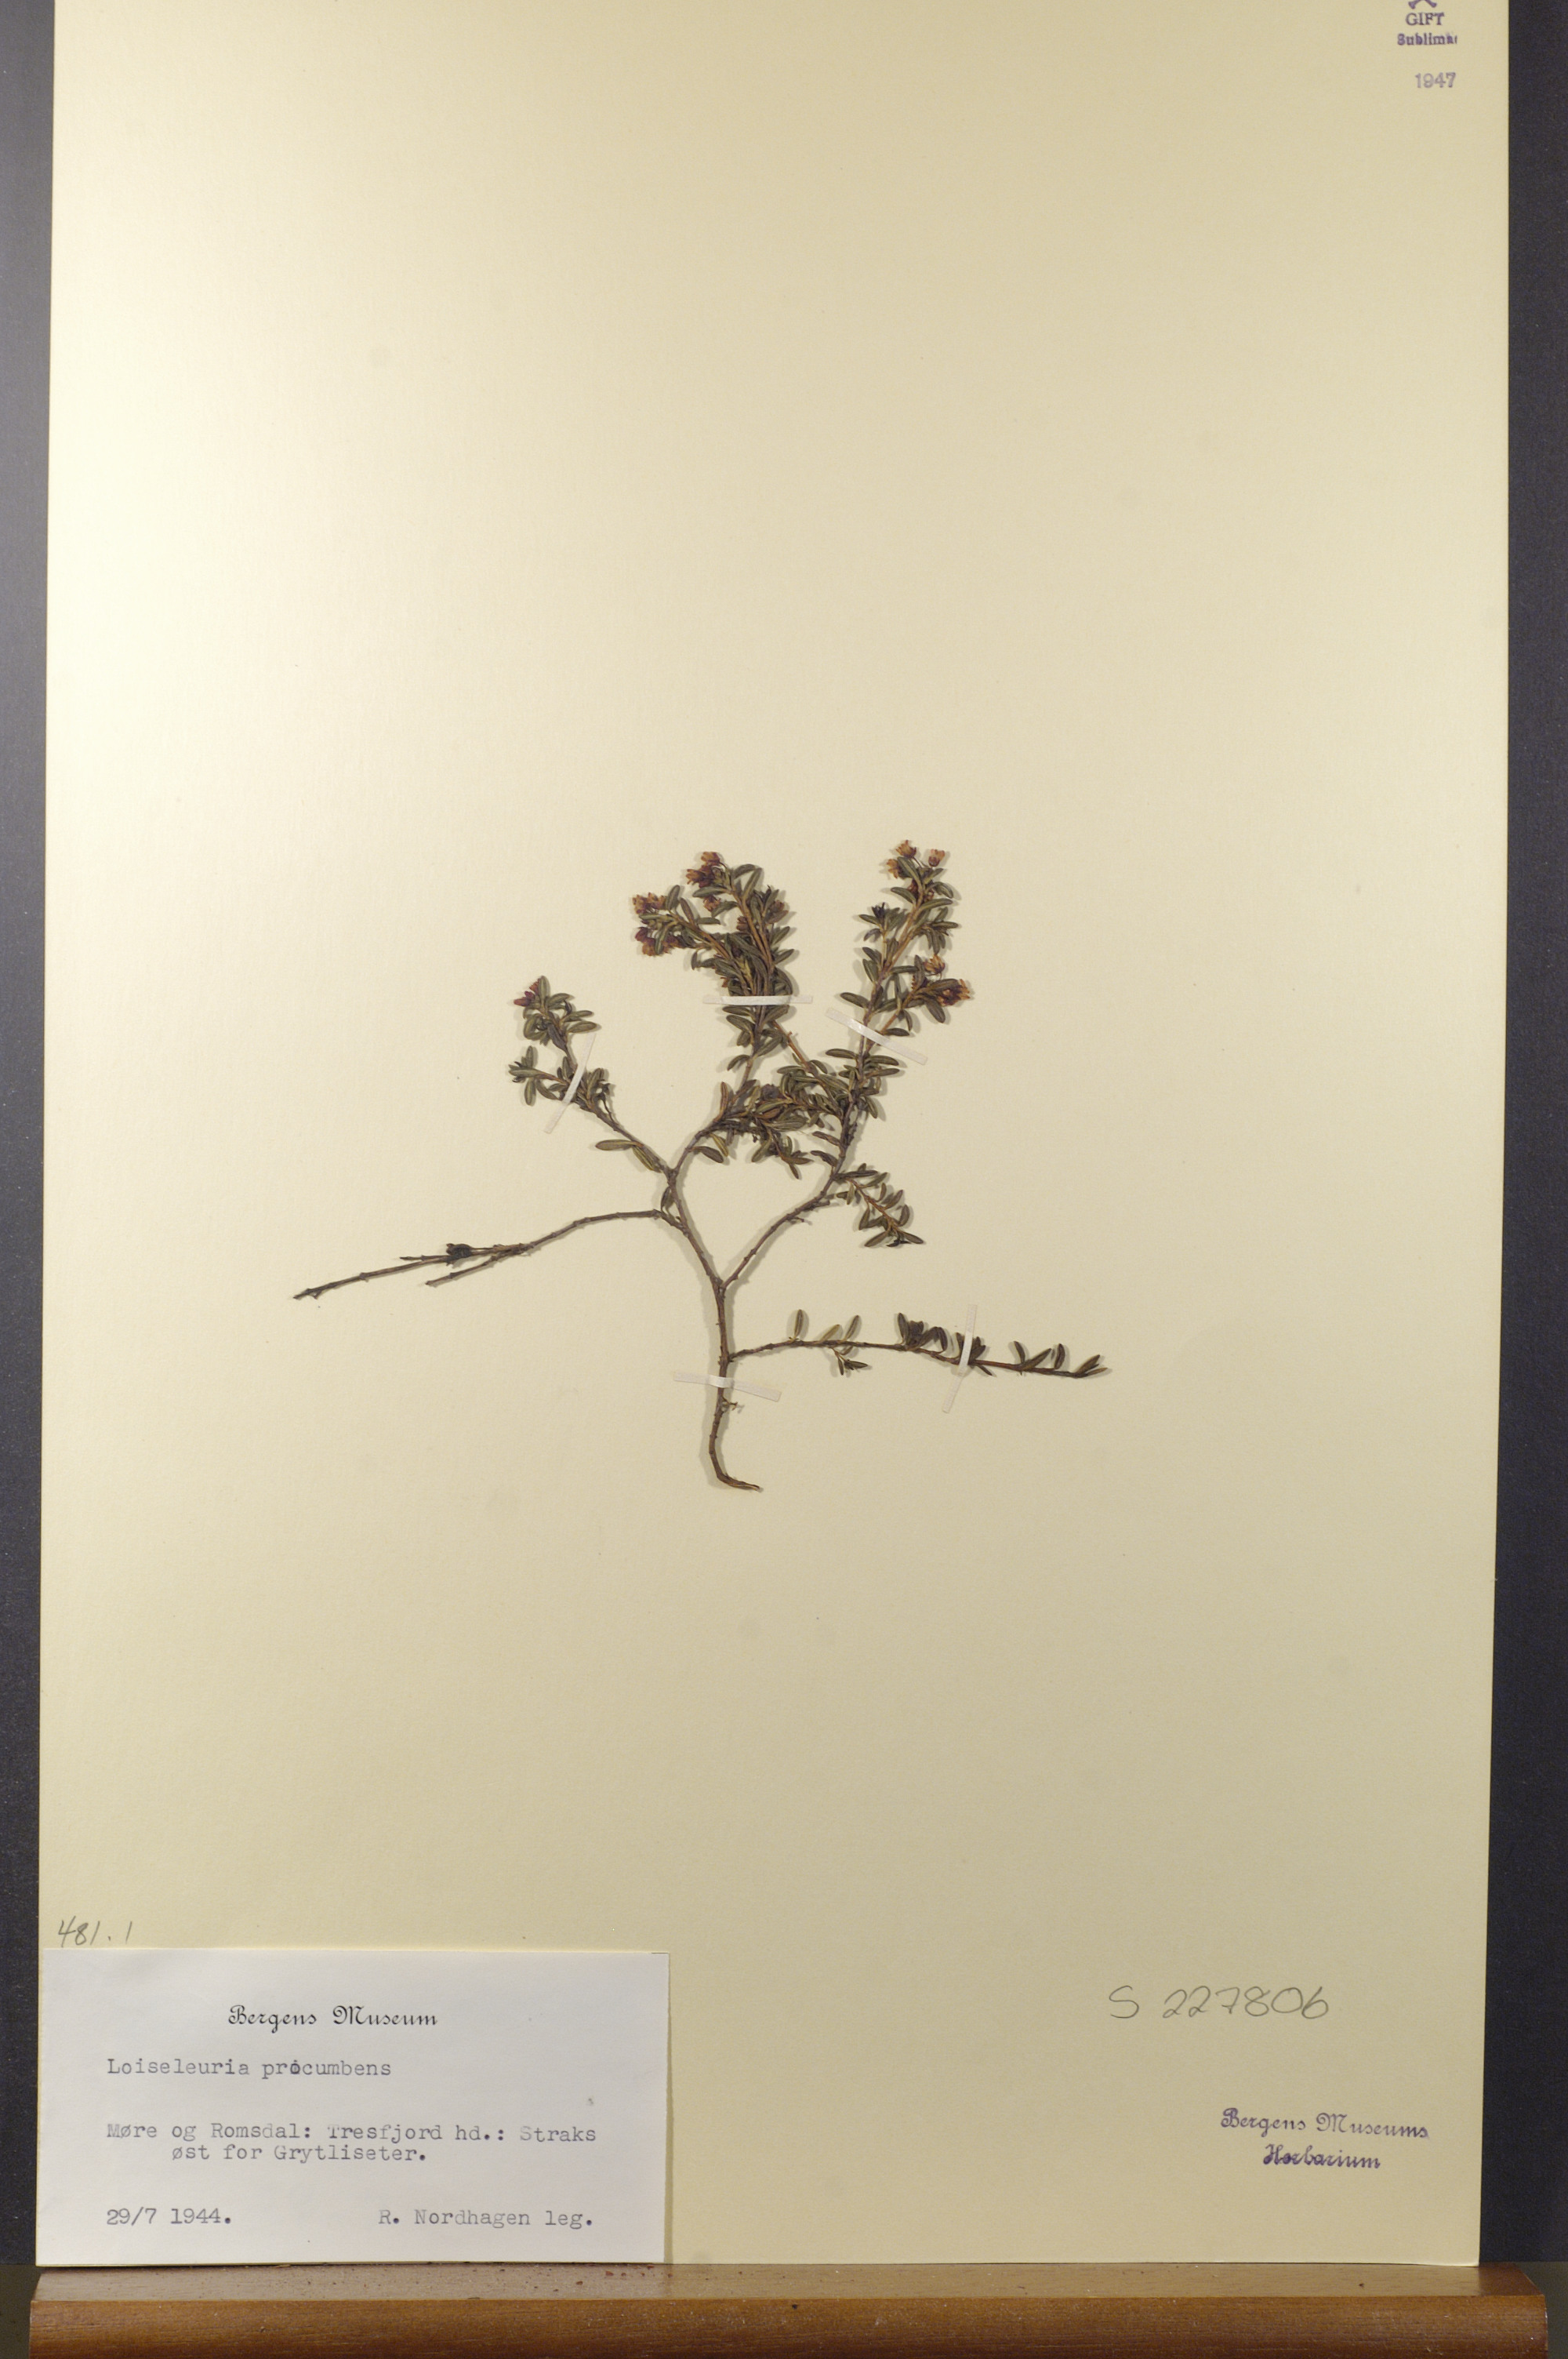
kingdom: Plantae
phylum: Tracheophyta
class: Magnoliopsida
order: Ericales
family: Ericaceae
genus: Kalmia
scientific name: Kalmia procumbens
